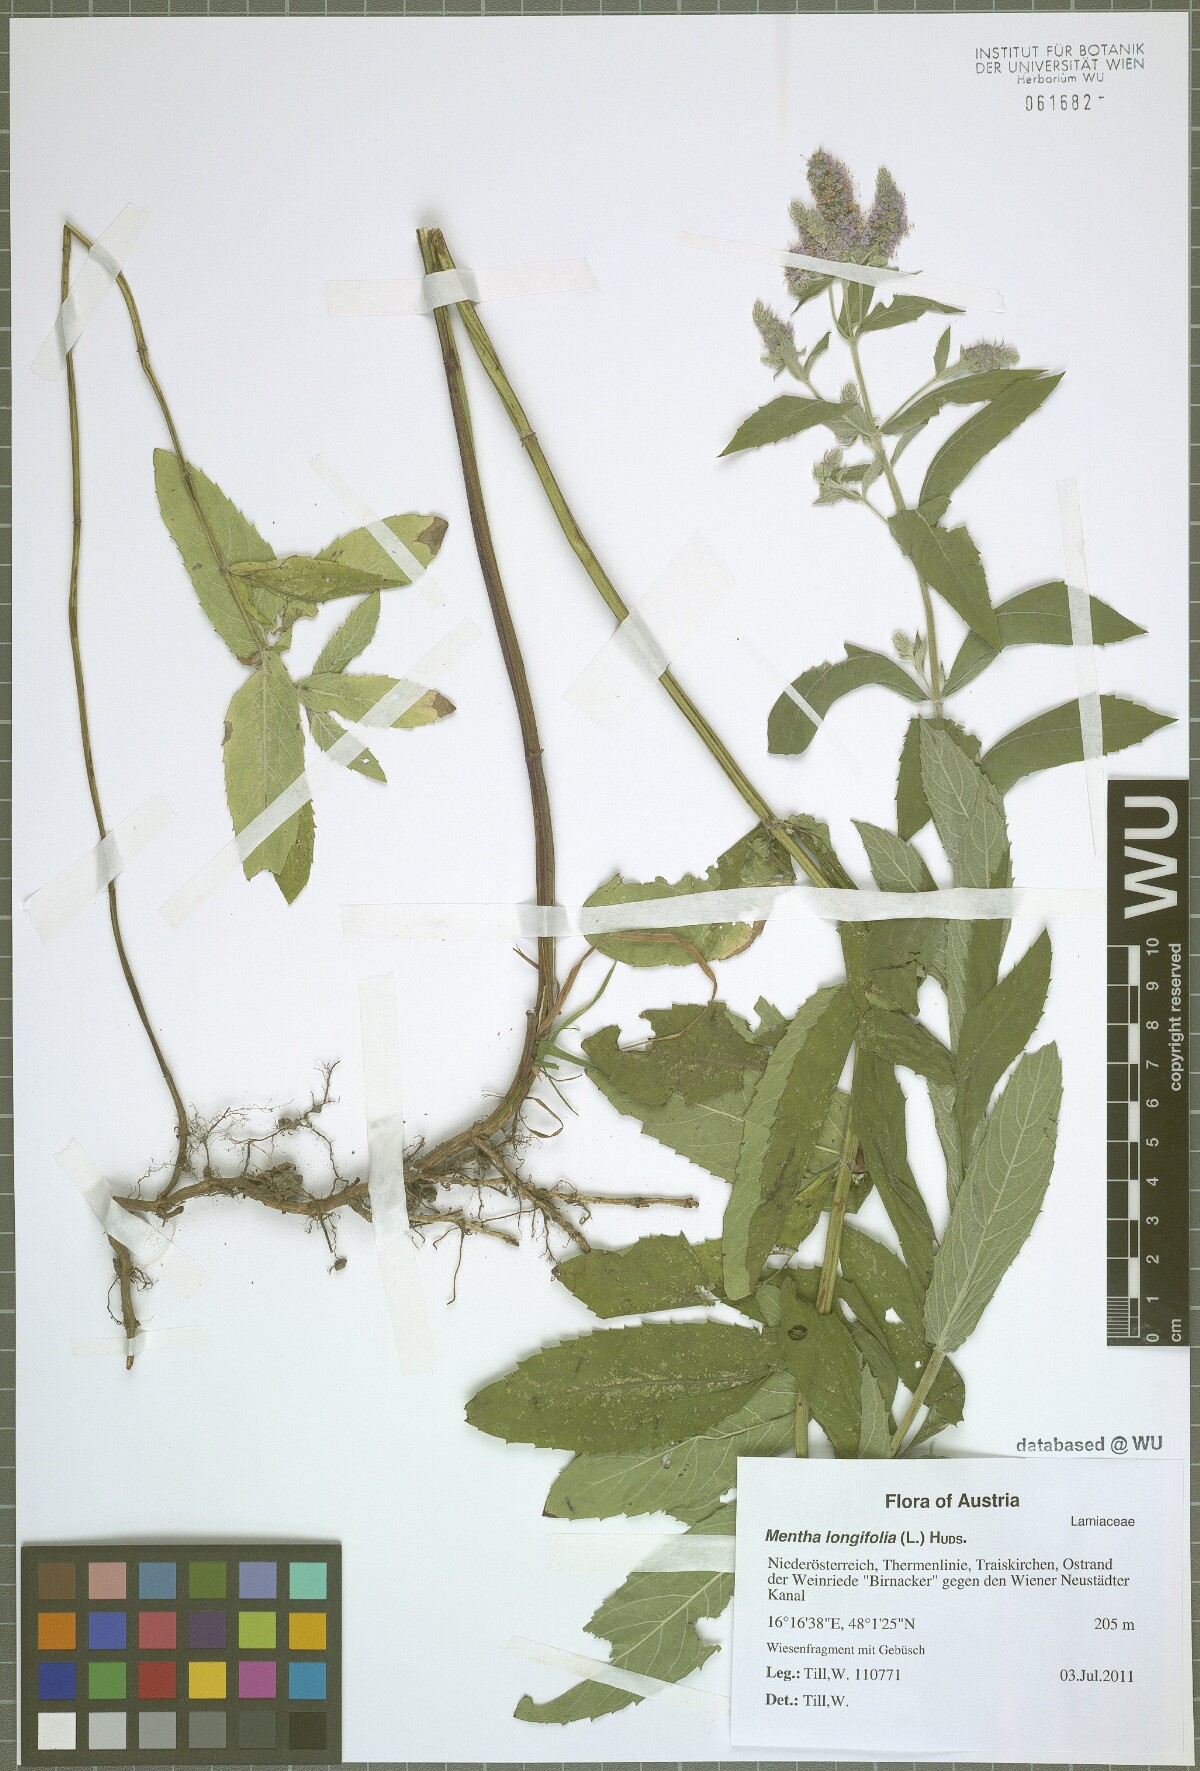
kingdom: Plantae
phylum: Tracheophyta
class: Magnoliopsida
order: Lamiales
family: Lamiaceae
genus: Mentha
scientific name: Mentha longifolia
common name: Horse mint
